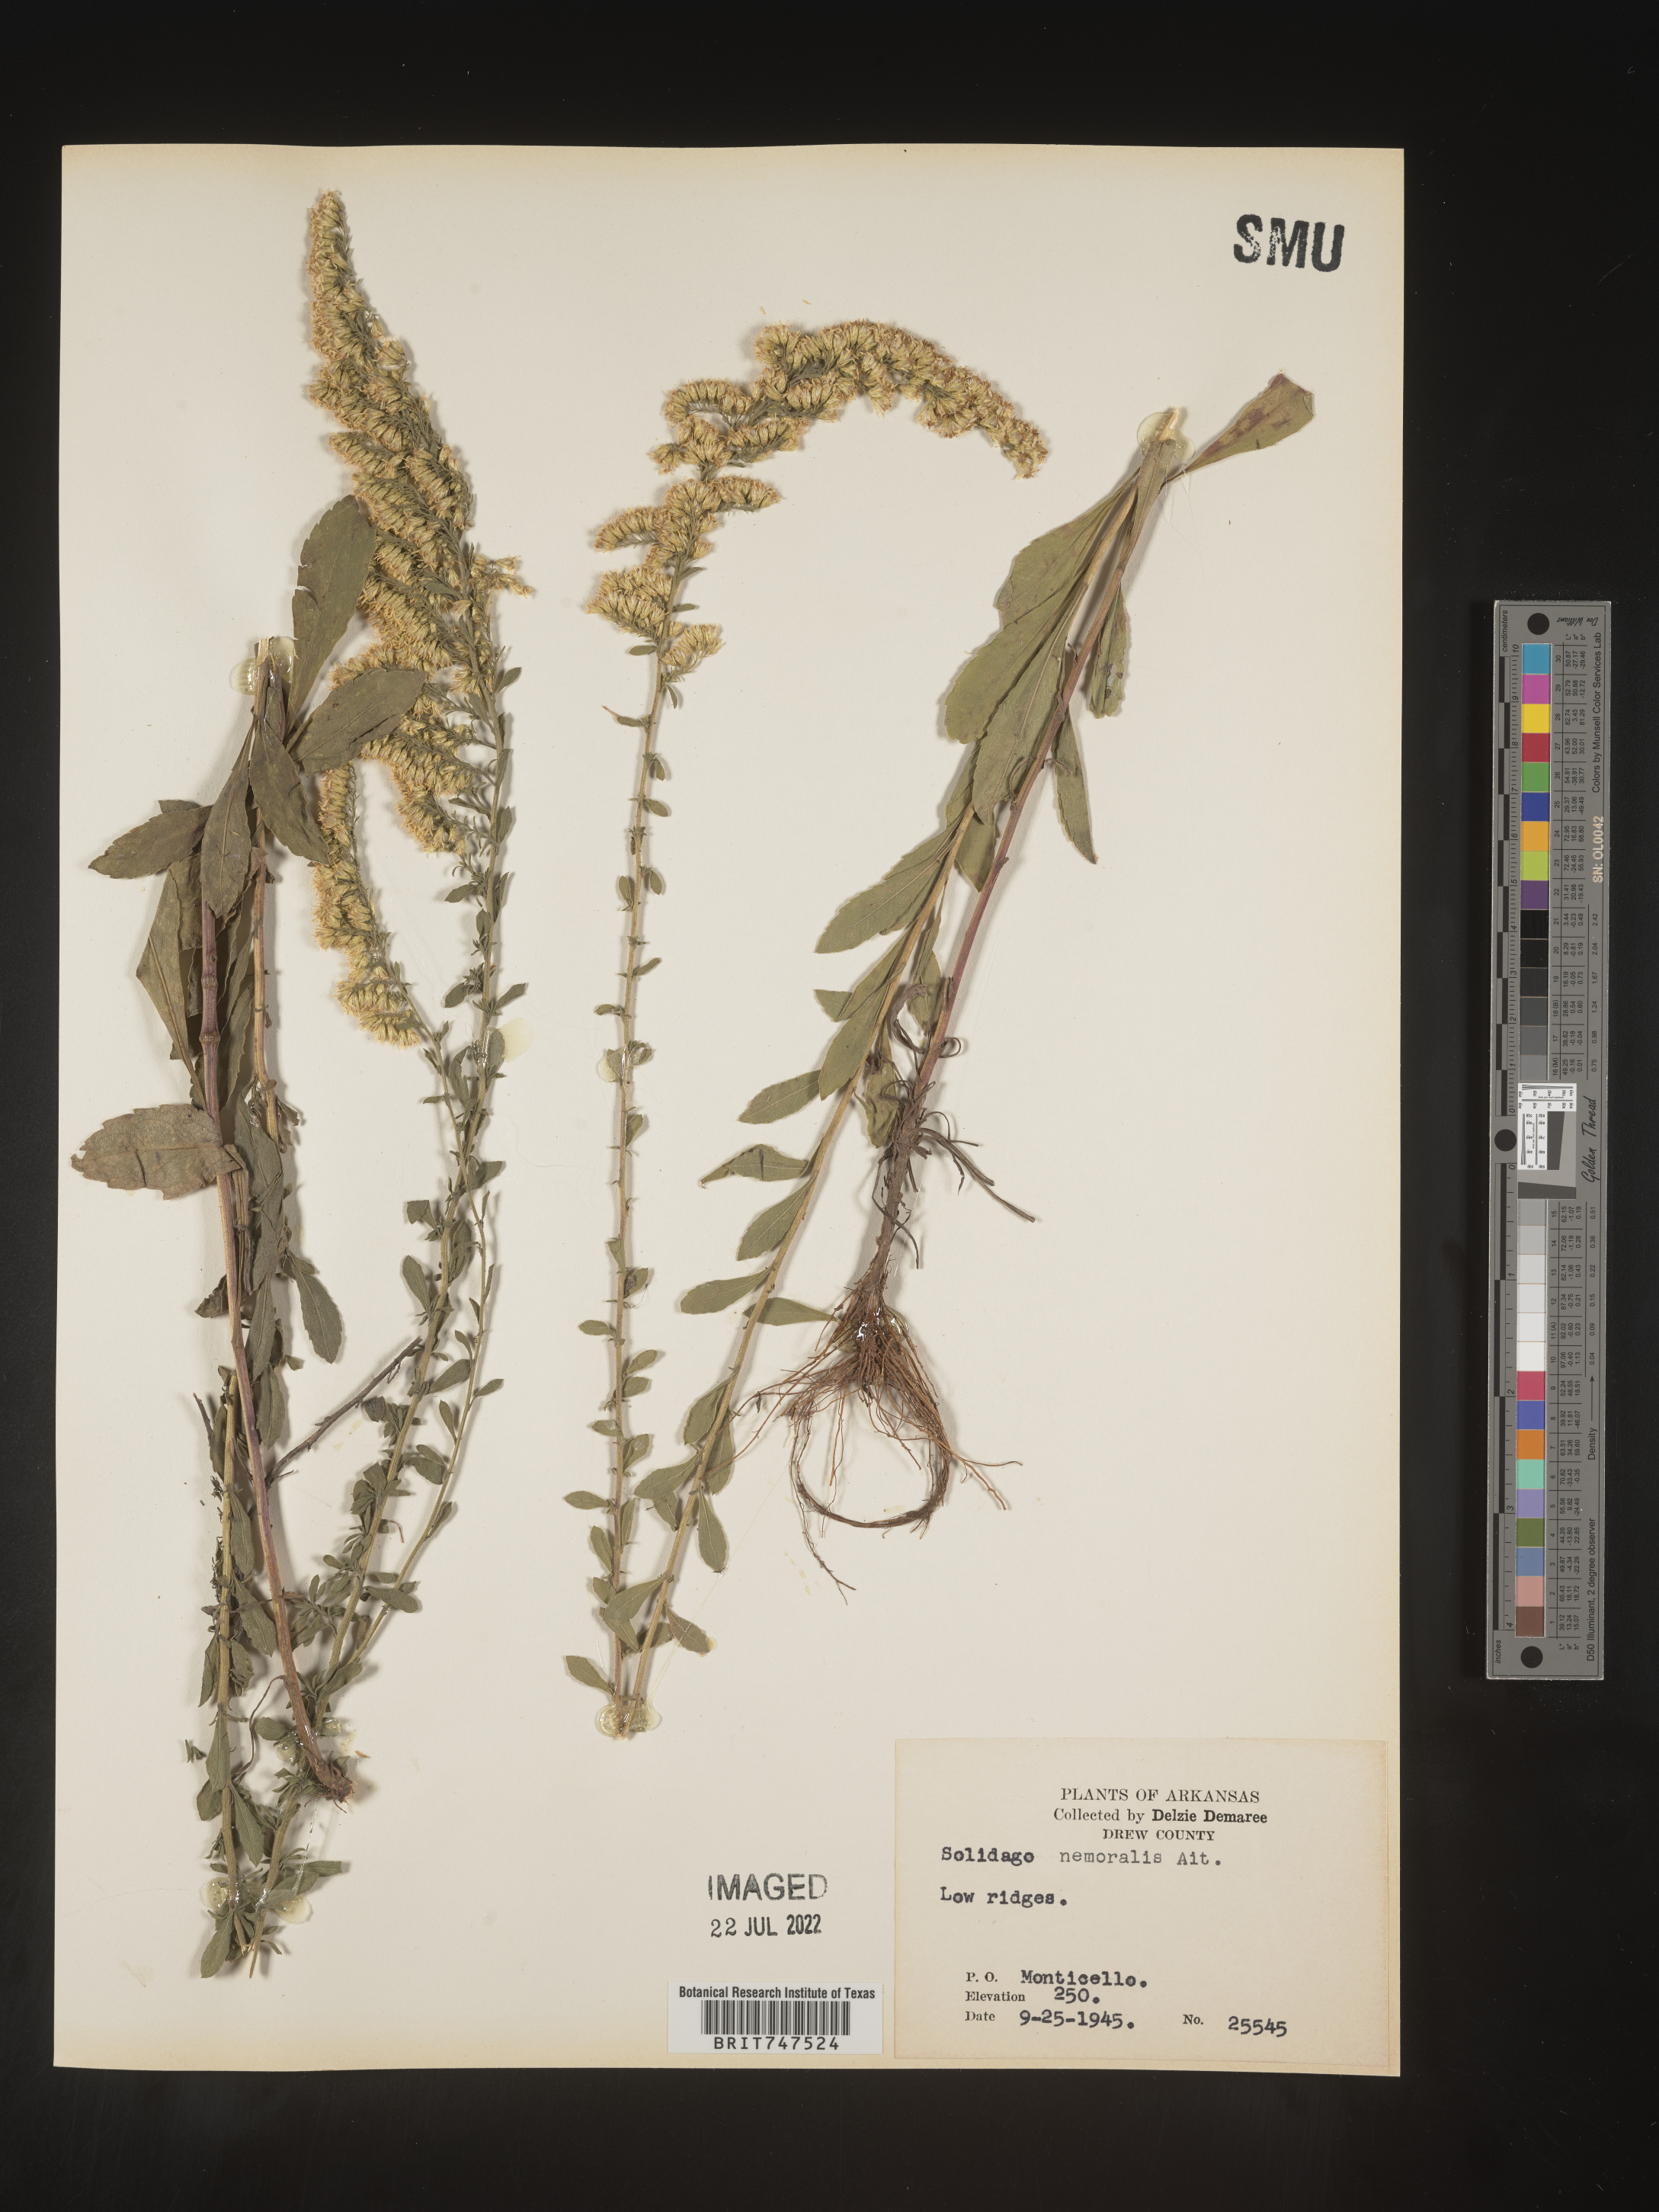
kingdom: Plantae
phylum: Tracheophyta
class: Magnoliopsida
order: Asterales
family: Asteraceae
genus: Solidago
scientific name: Solidago nemoralis
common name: Grey goldenrod
